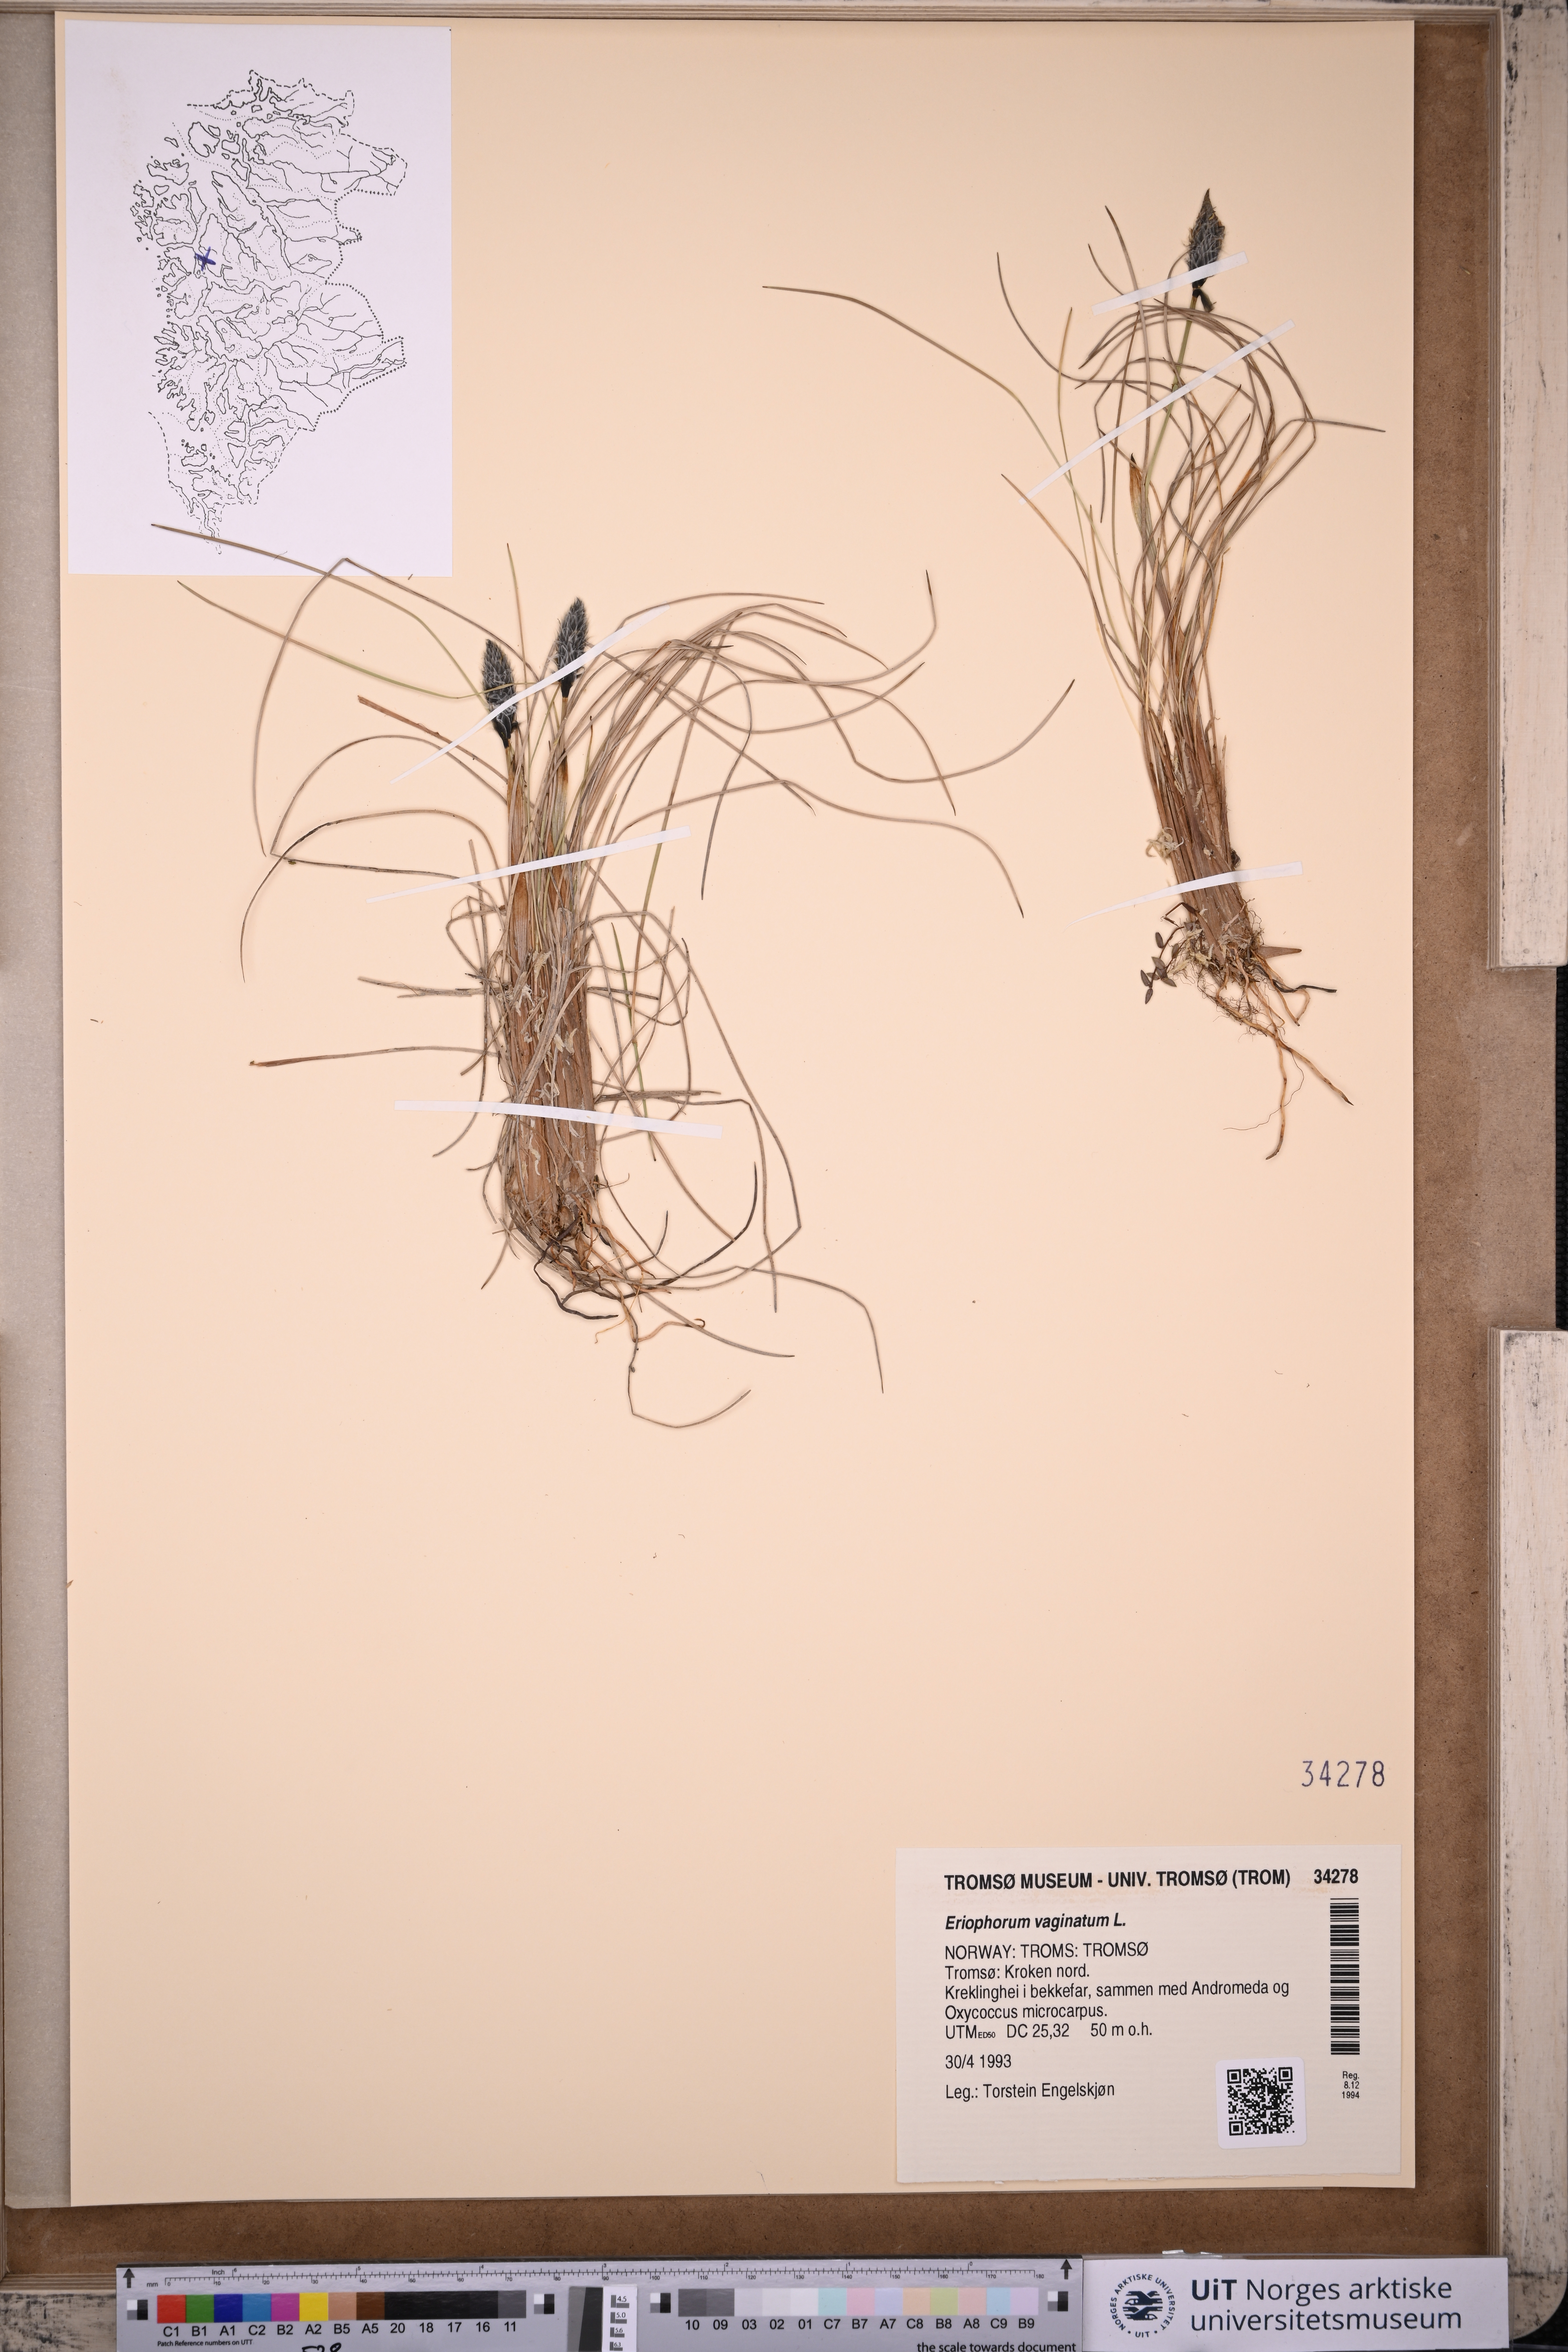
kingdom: Plantae
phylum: Tracheophyta
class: Liliopsida
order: Poales
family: Cyperaceae
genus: Eriophorum
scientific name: Eriophorum vaginatum
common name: Hare's-tail cottongrass
